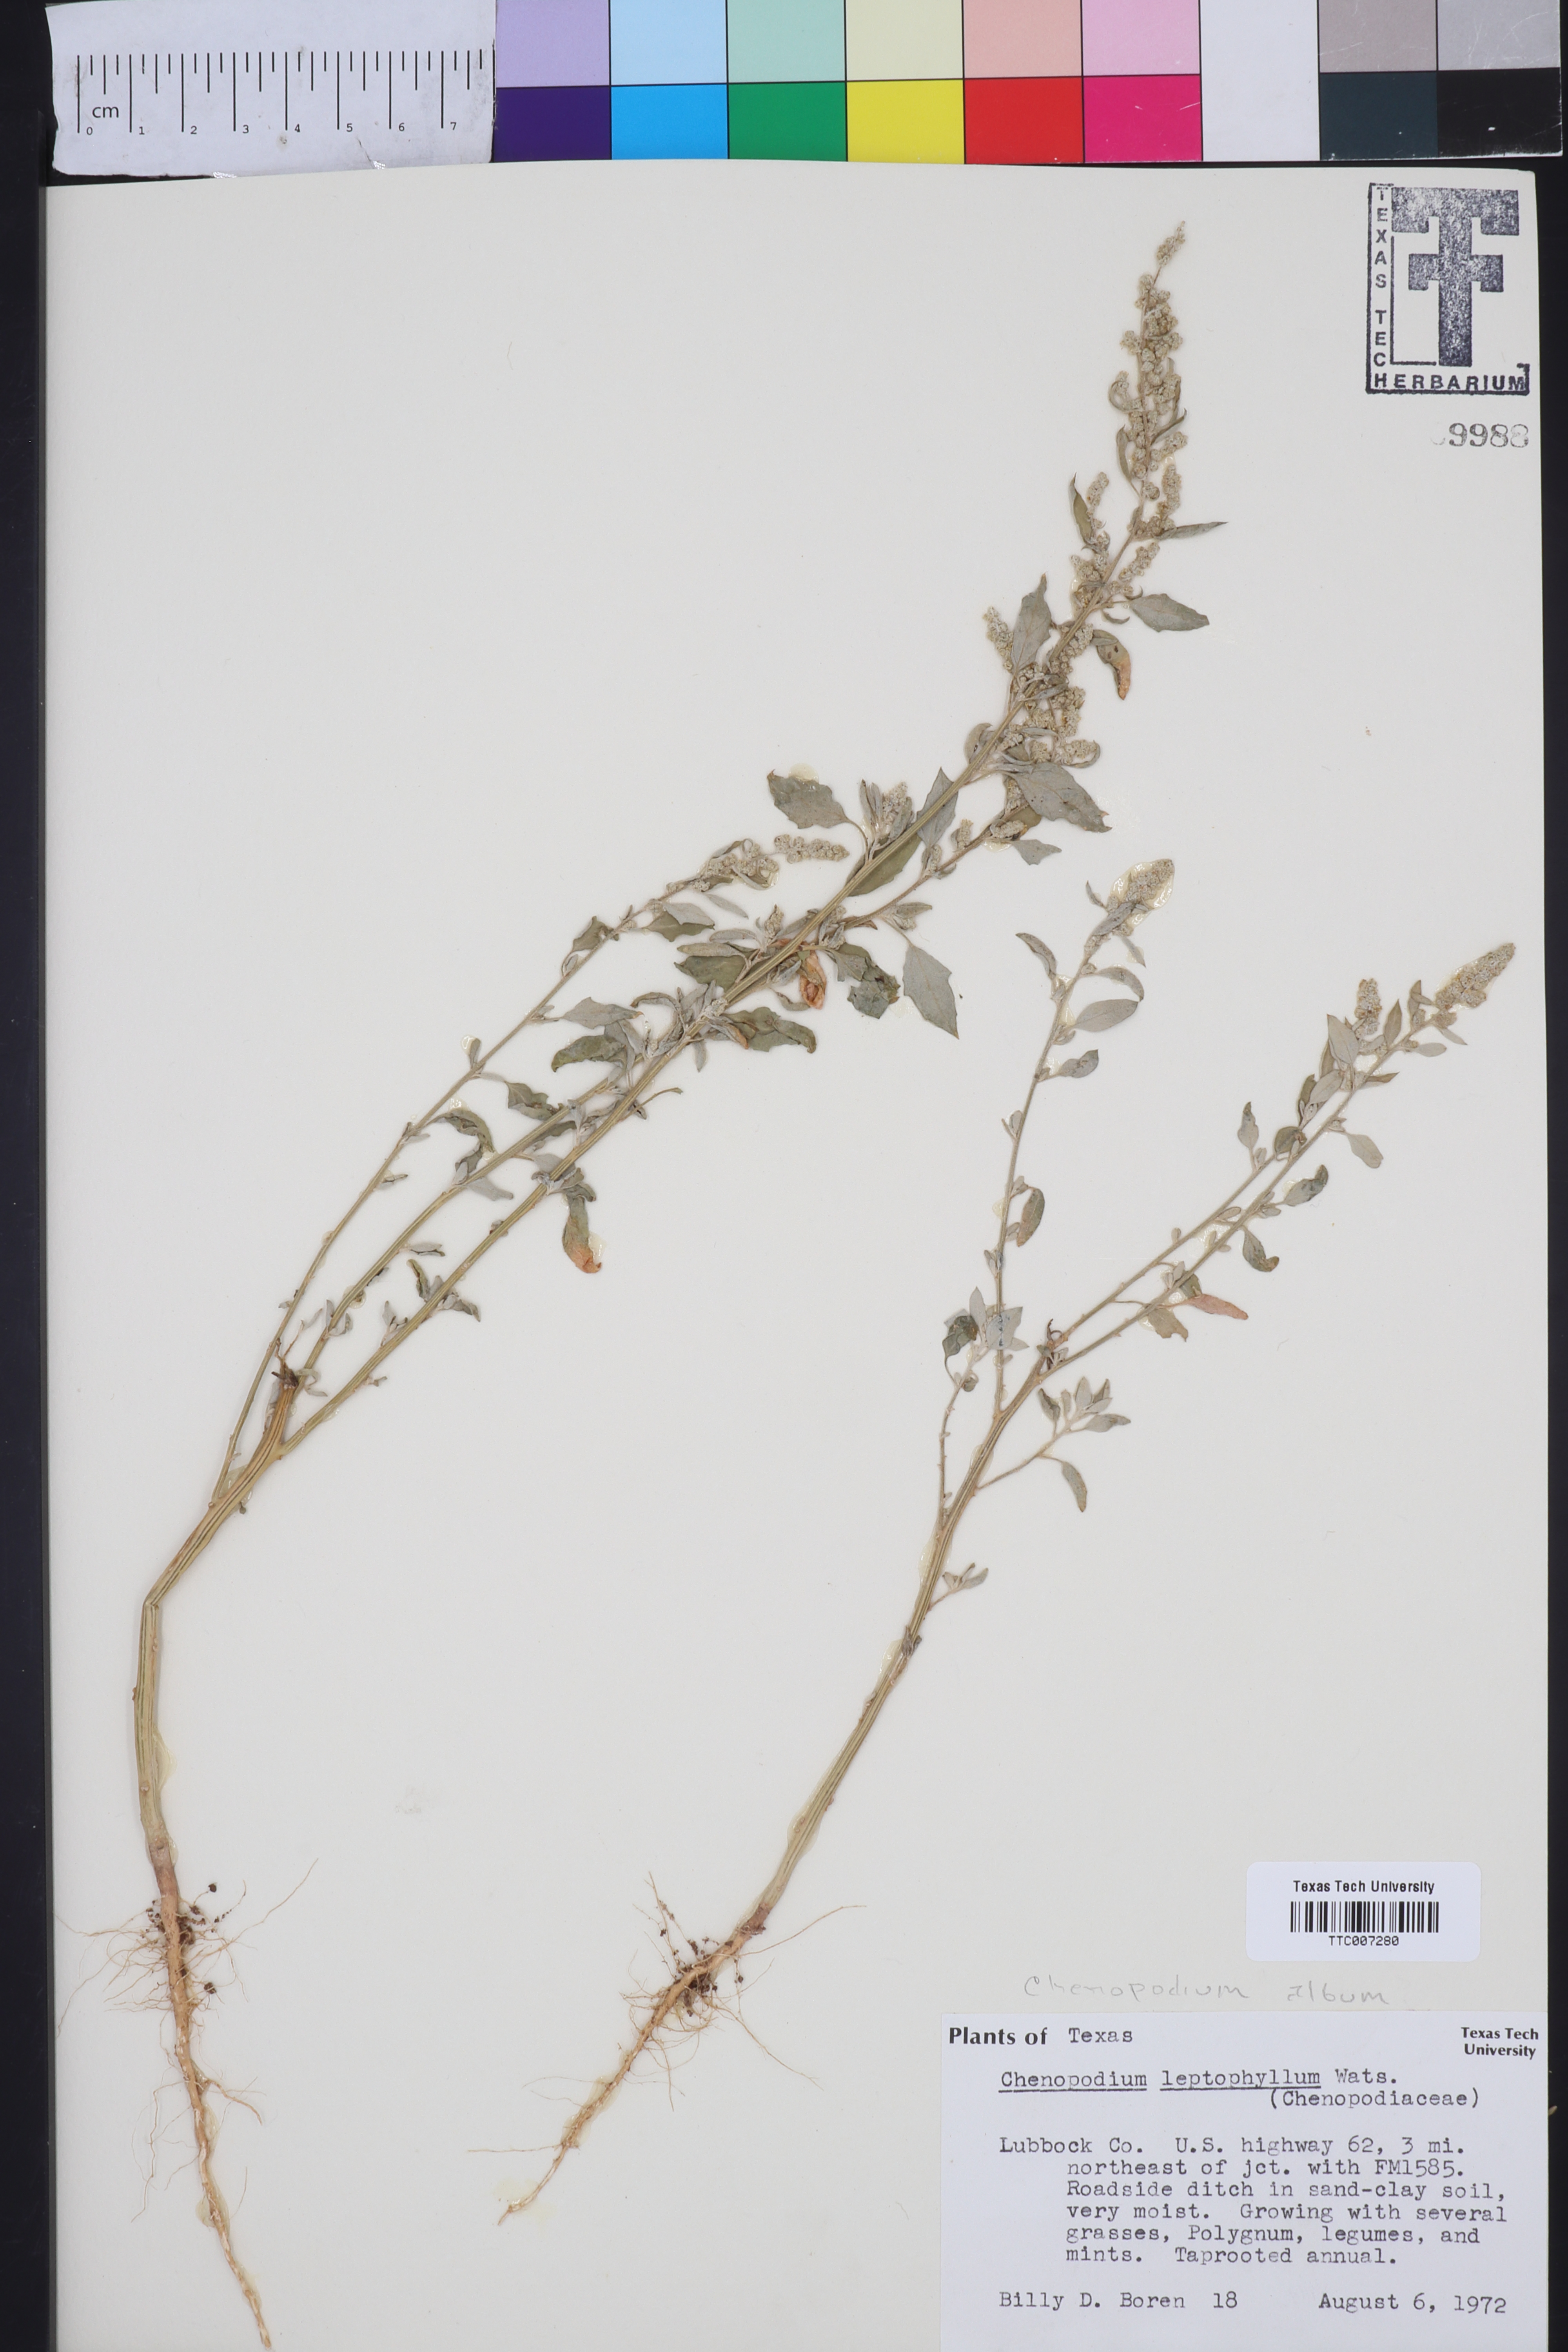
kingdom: Plantae
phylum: Tracheophyta
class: Magnoliopsida
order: Caryophyllales
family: Amaranthaceae
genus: Chenopodium
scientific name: Chenopodium album
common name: Fat-hen
